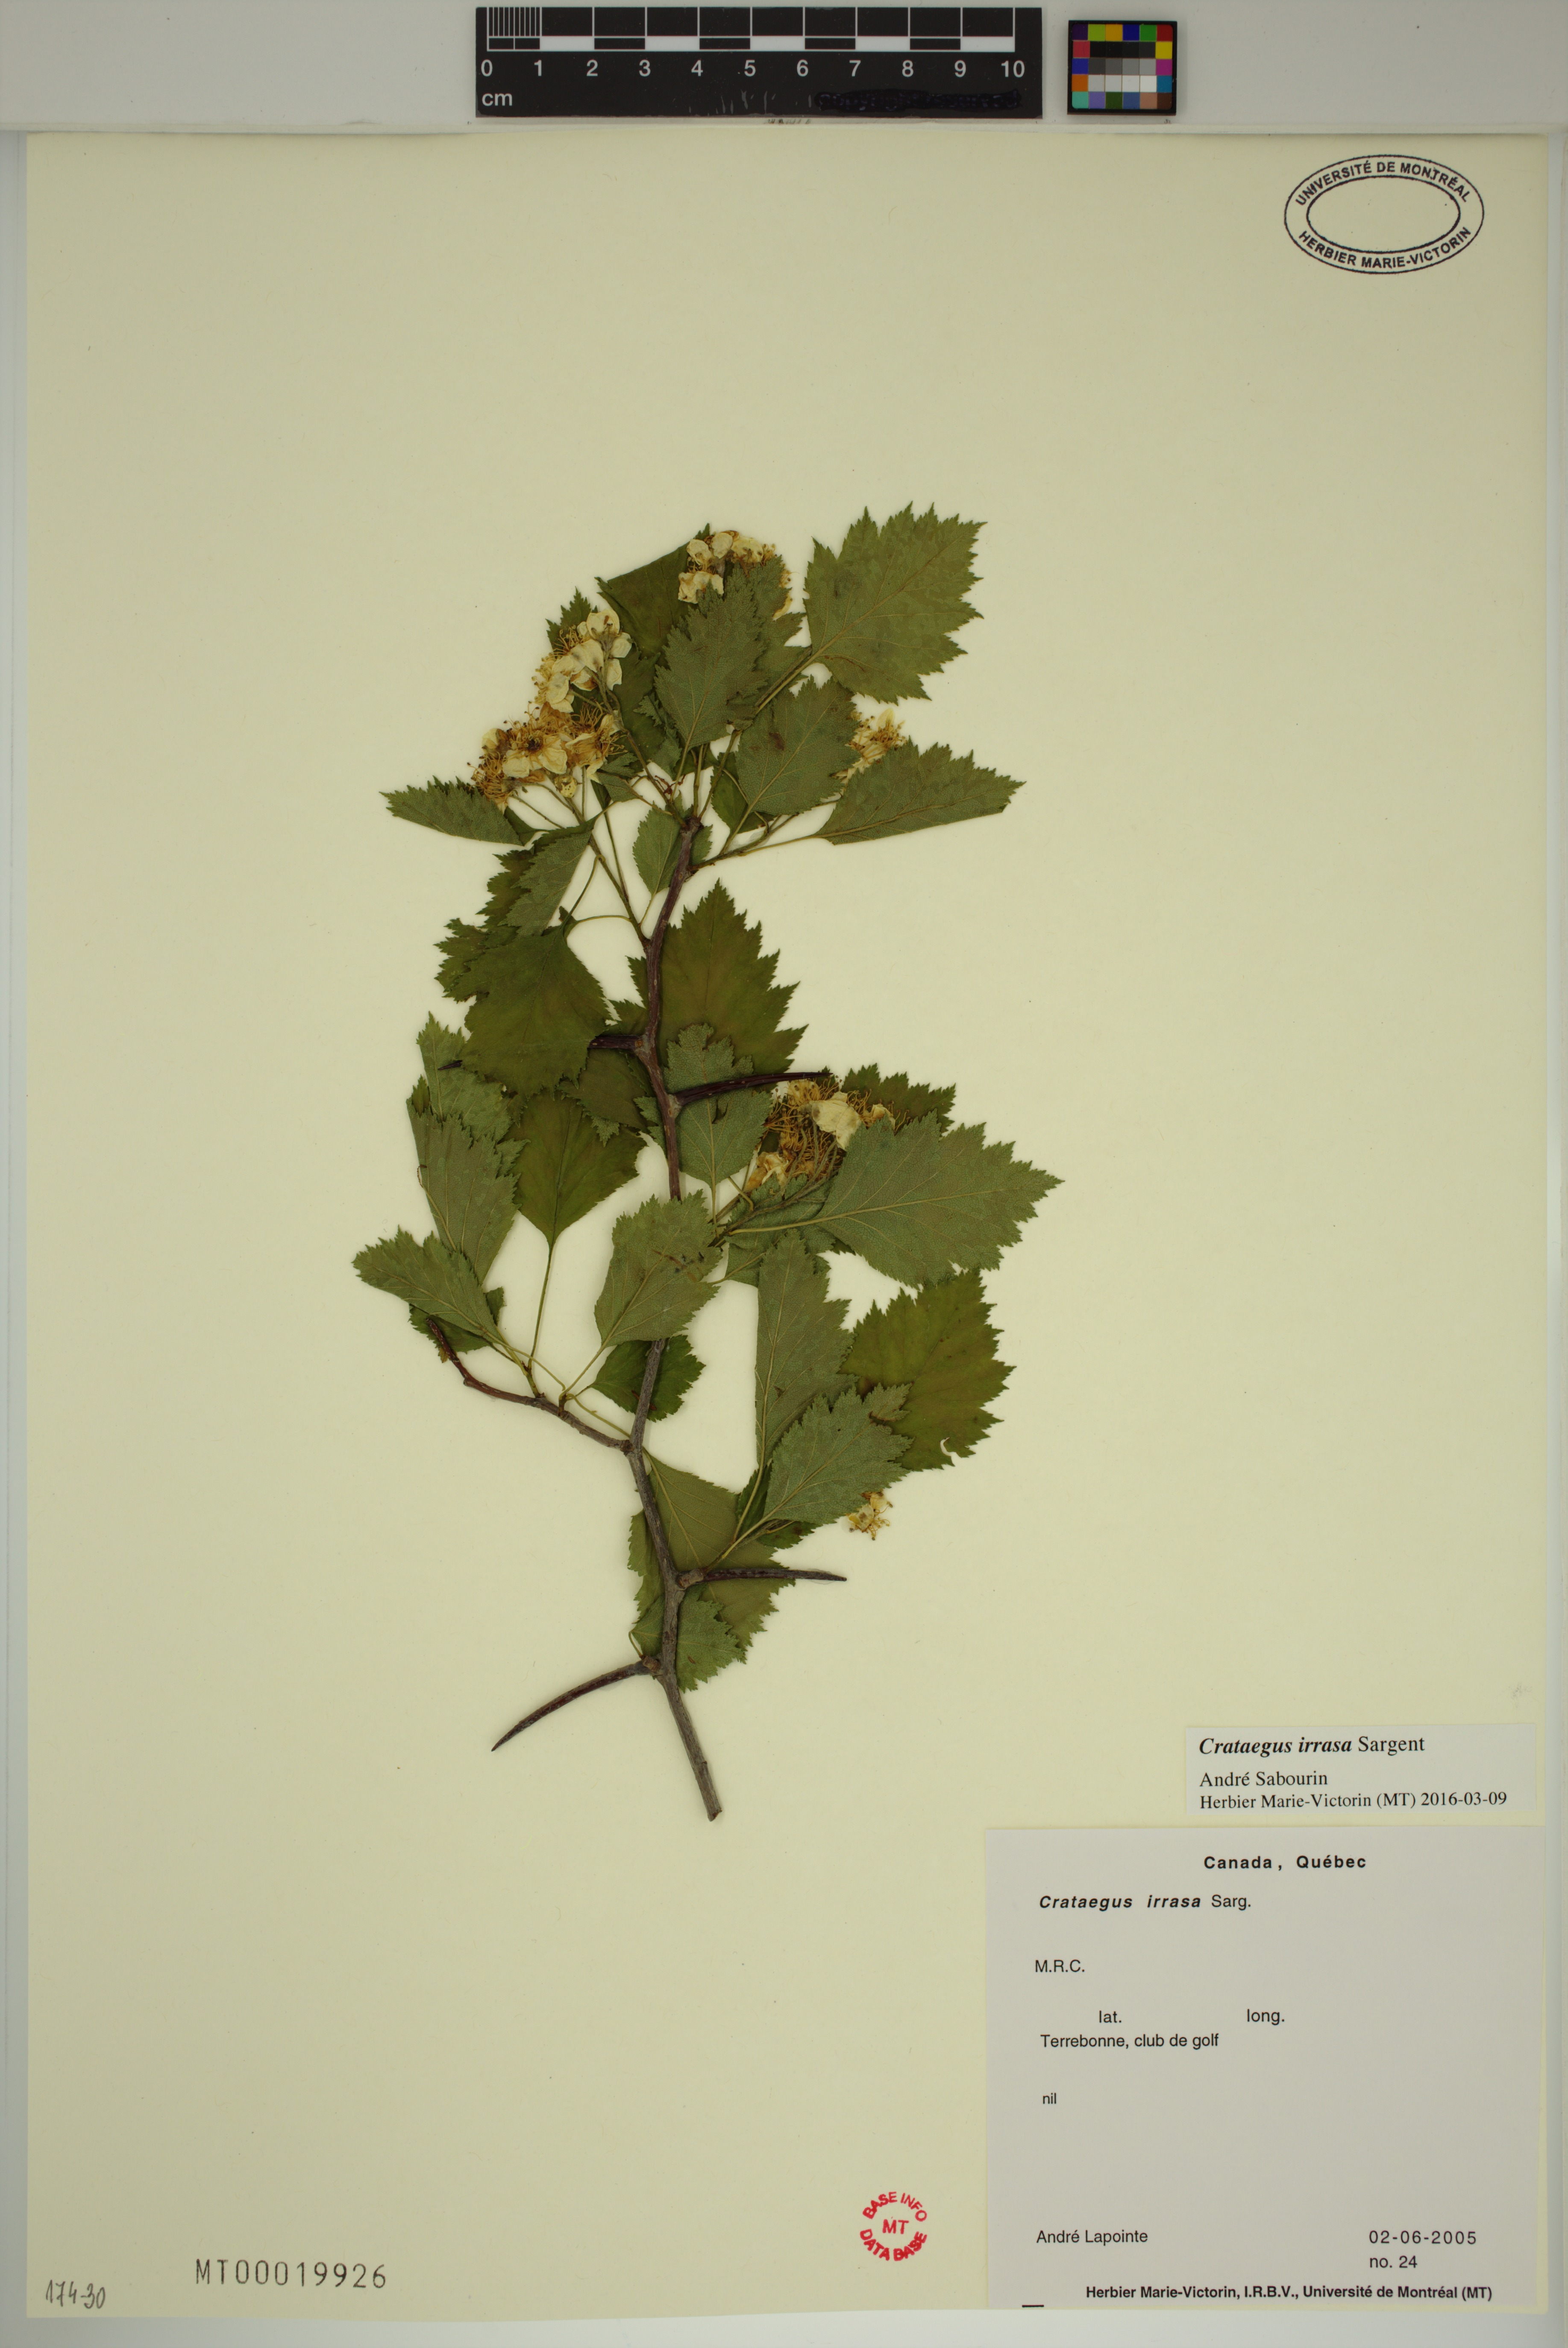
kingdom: Plantae
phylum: Tracheophyta
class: Magnoliopsida
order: Rosales
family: Rosaceae
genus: Crataegus
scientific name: Crataegus irrasa
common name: Unshorn hawthorn
